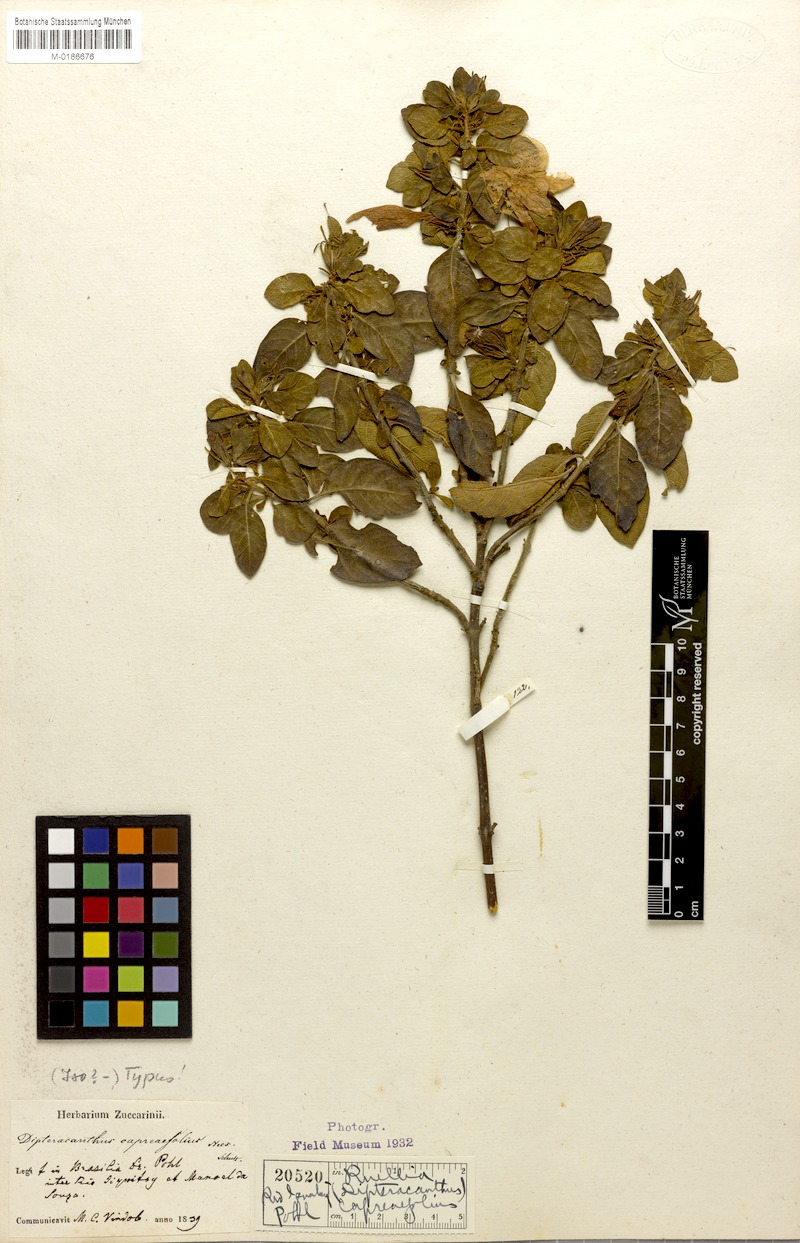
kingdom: Plantae
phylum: Tracheophyta
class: Magnoliopsida
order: Lamiales
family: Acanthaceae
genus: Ruellia
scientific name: Ruellia capreaefolia
